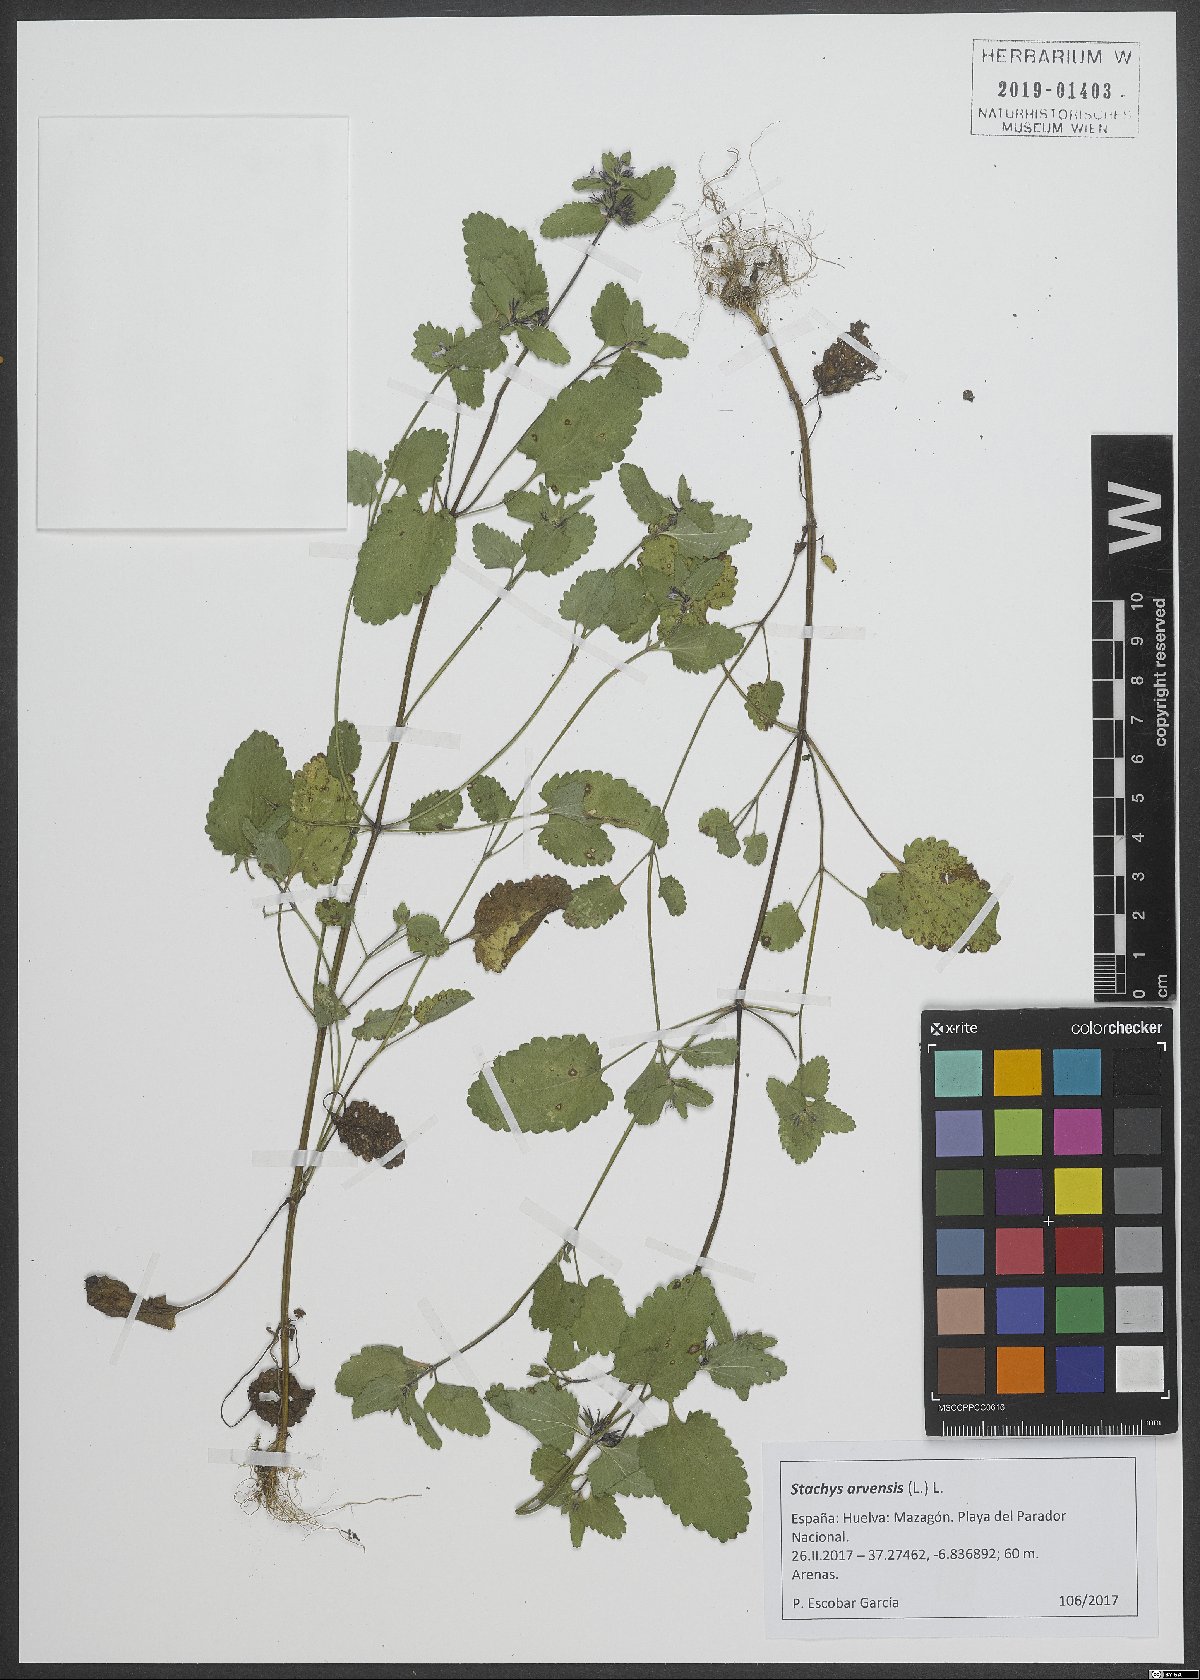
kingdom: Plantae
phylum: Tracheophyta
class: Magnoliopsida
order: Lamiales
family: Lamiaceae
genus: Stachys
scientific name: Stachys arvensis
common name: Field woundwort
